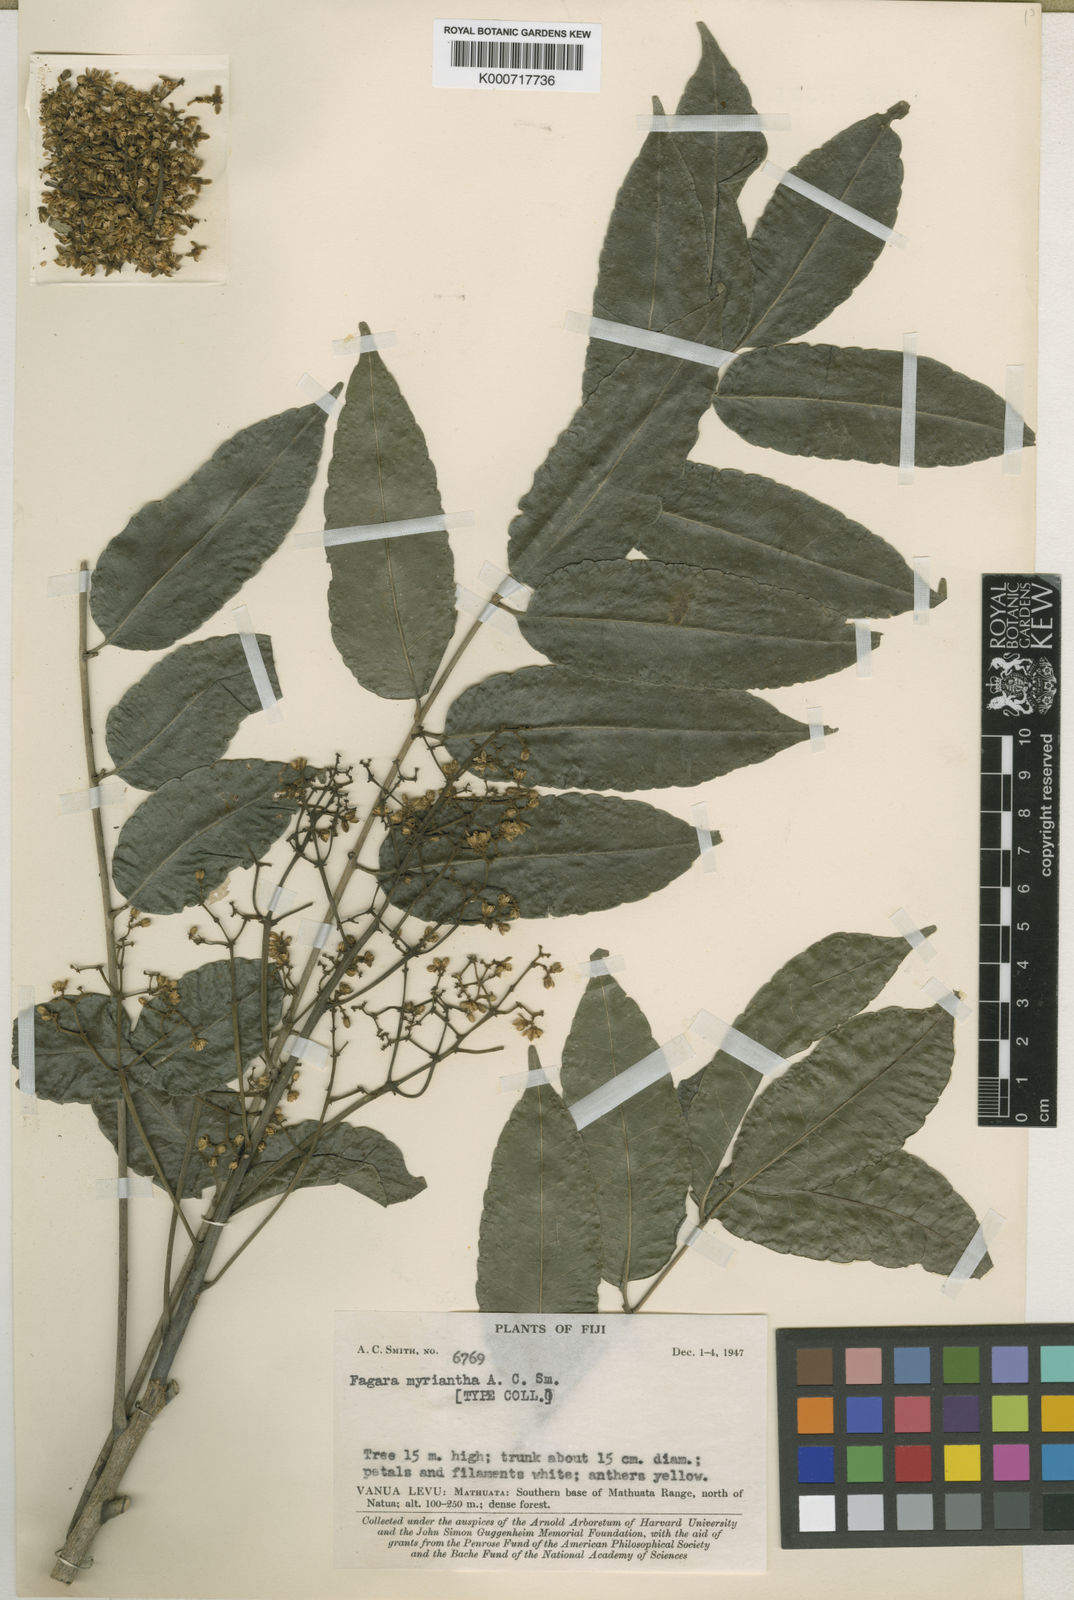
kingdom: Plantae
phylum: Tracheophyta
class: Magnoliopsida
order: Sapindales
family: Rutaceae
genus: Zanthoxylum
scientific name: Zanthoxylum myrianthum
